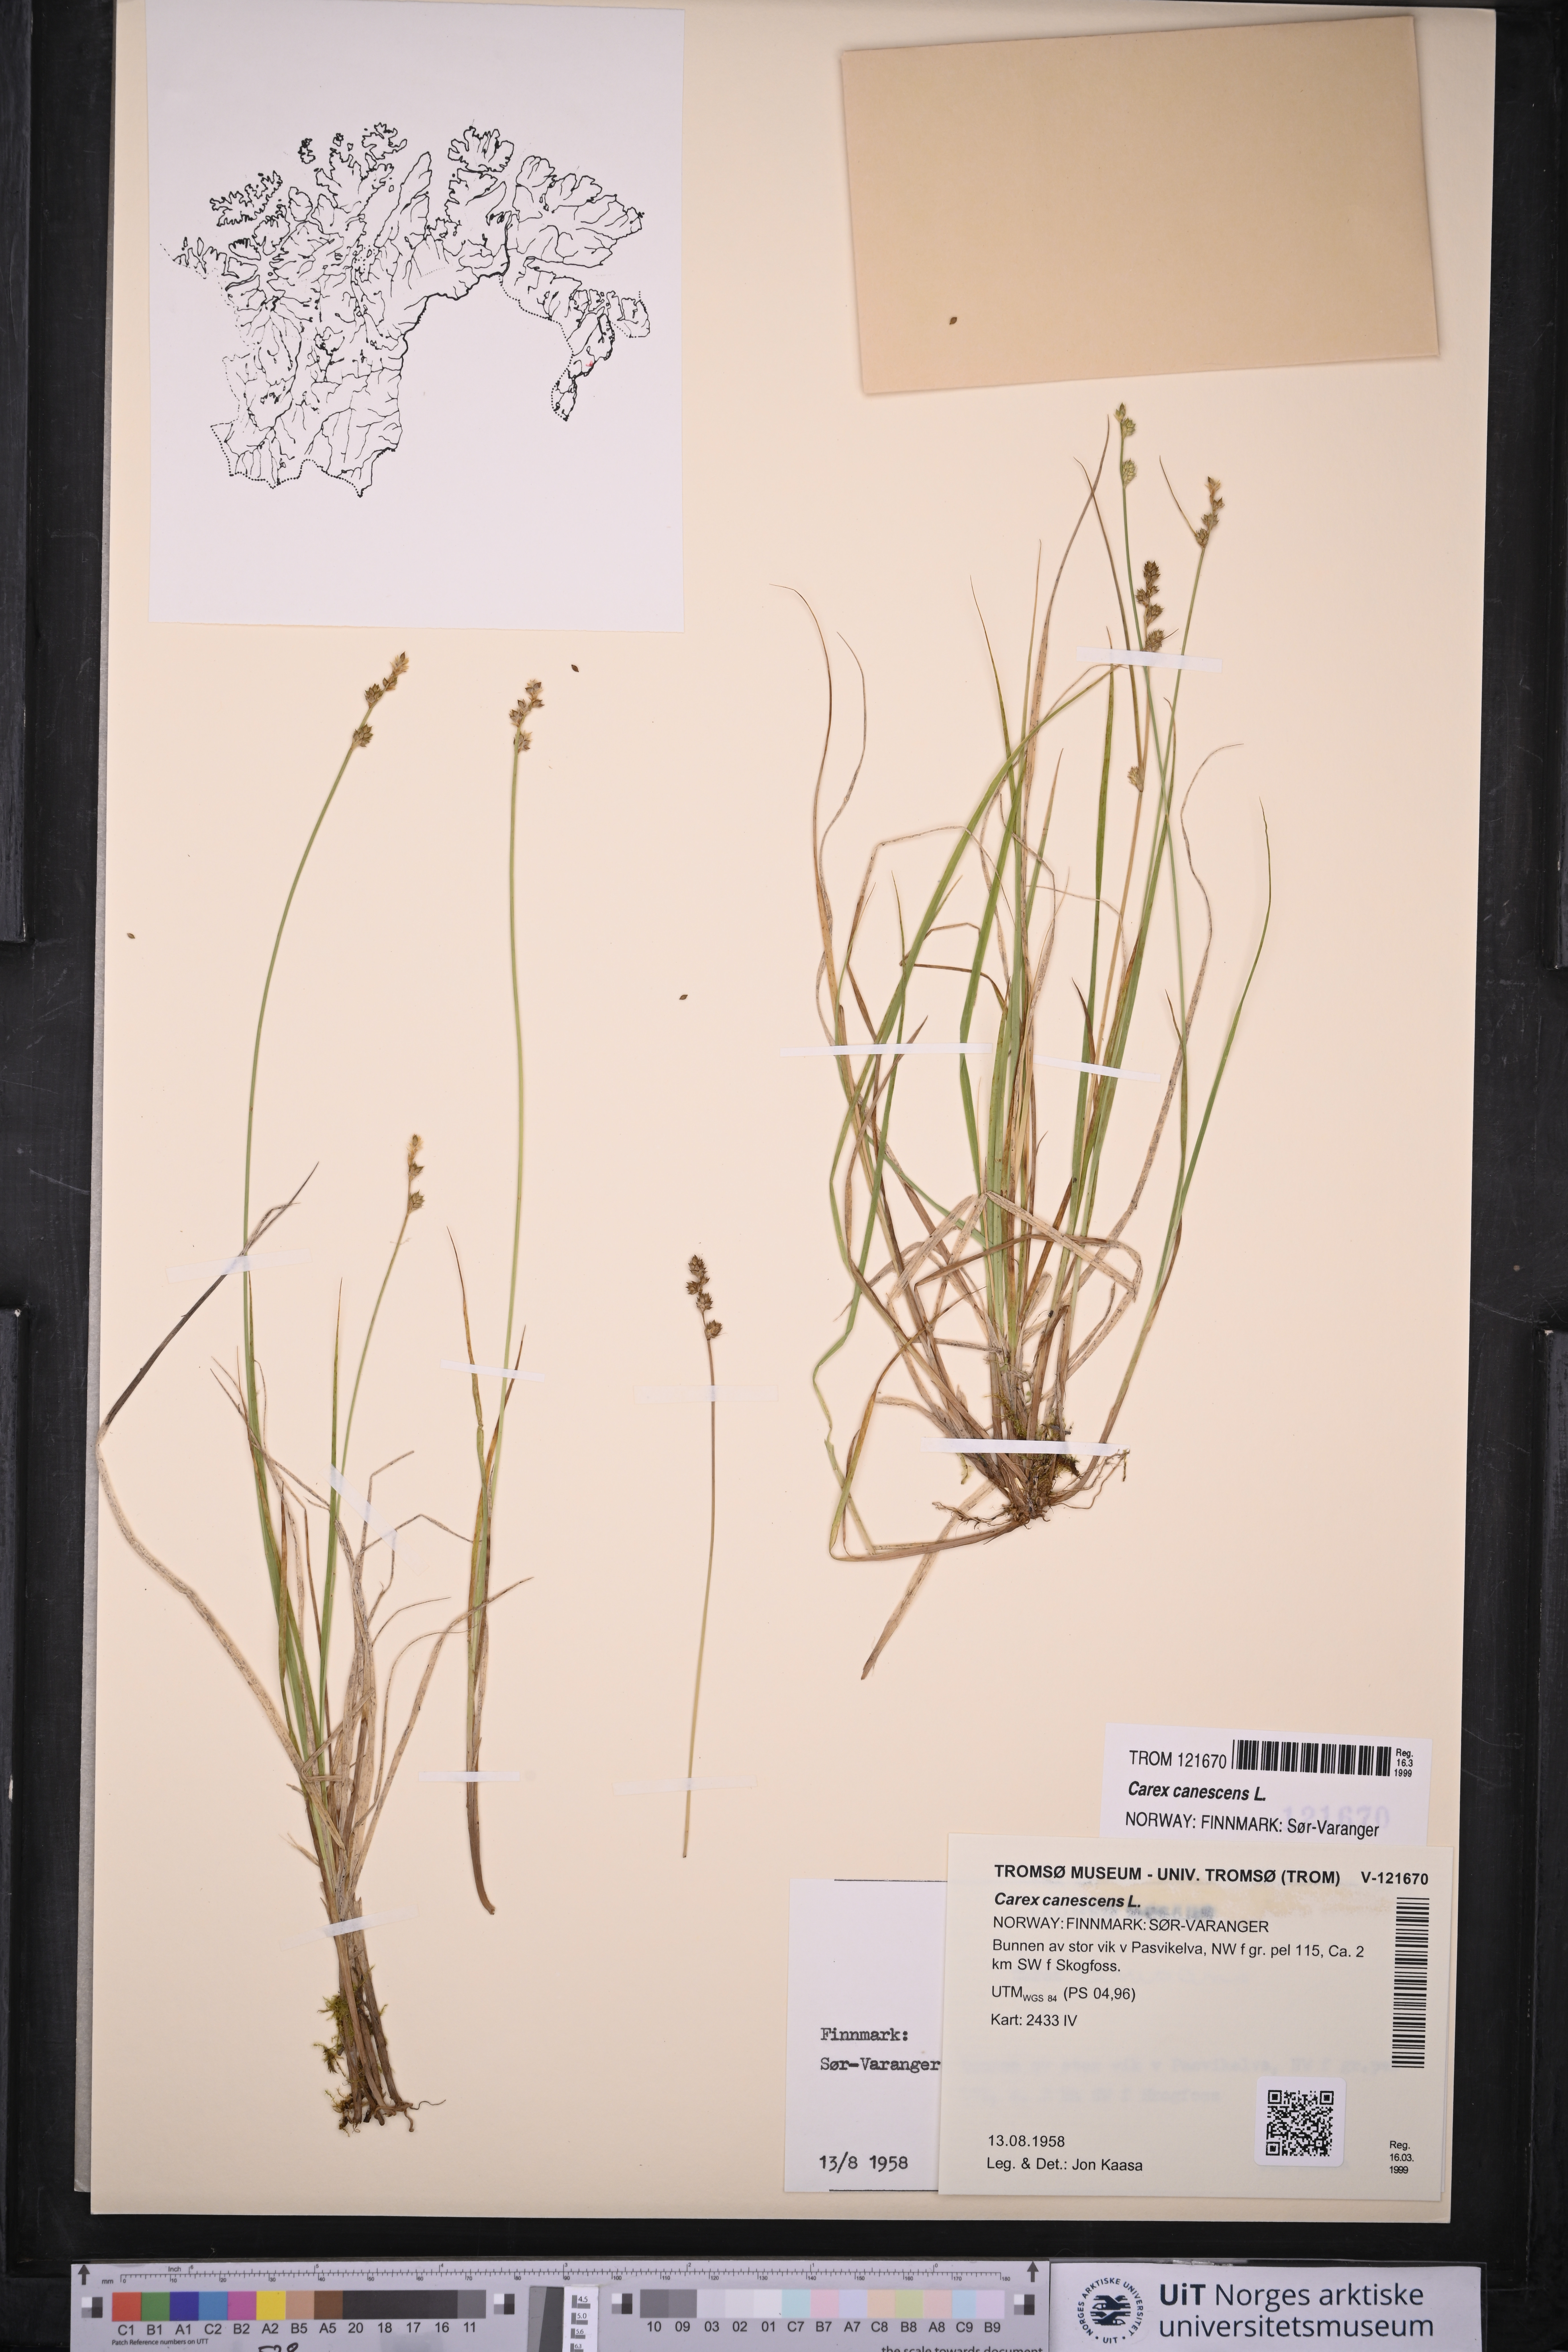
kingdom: Plantae
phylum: Tracheophyta
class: Liliopsida
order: Poales
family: Cyperaceae
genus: Carex
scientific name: Carex canescens
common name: White sedge
